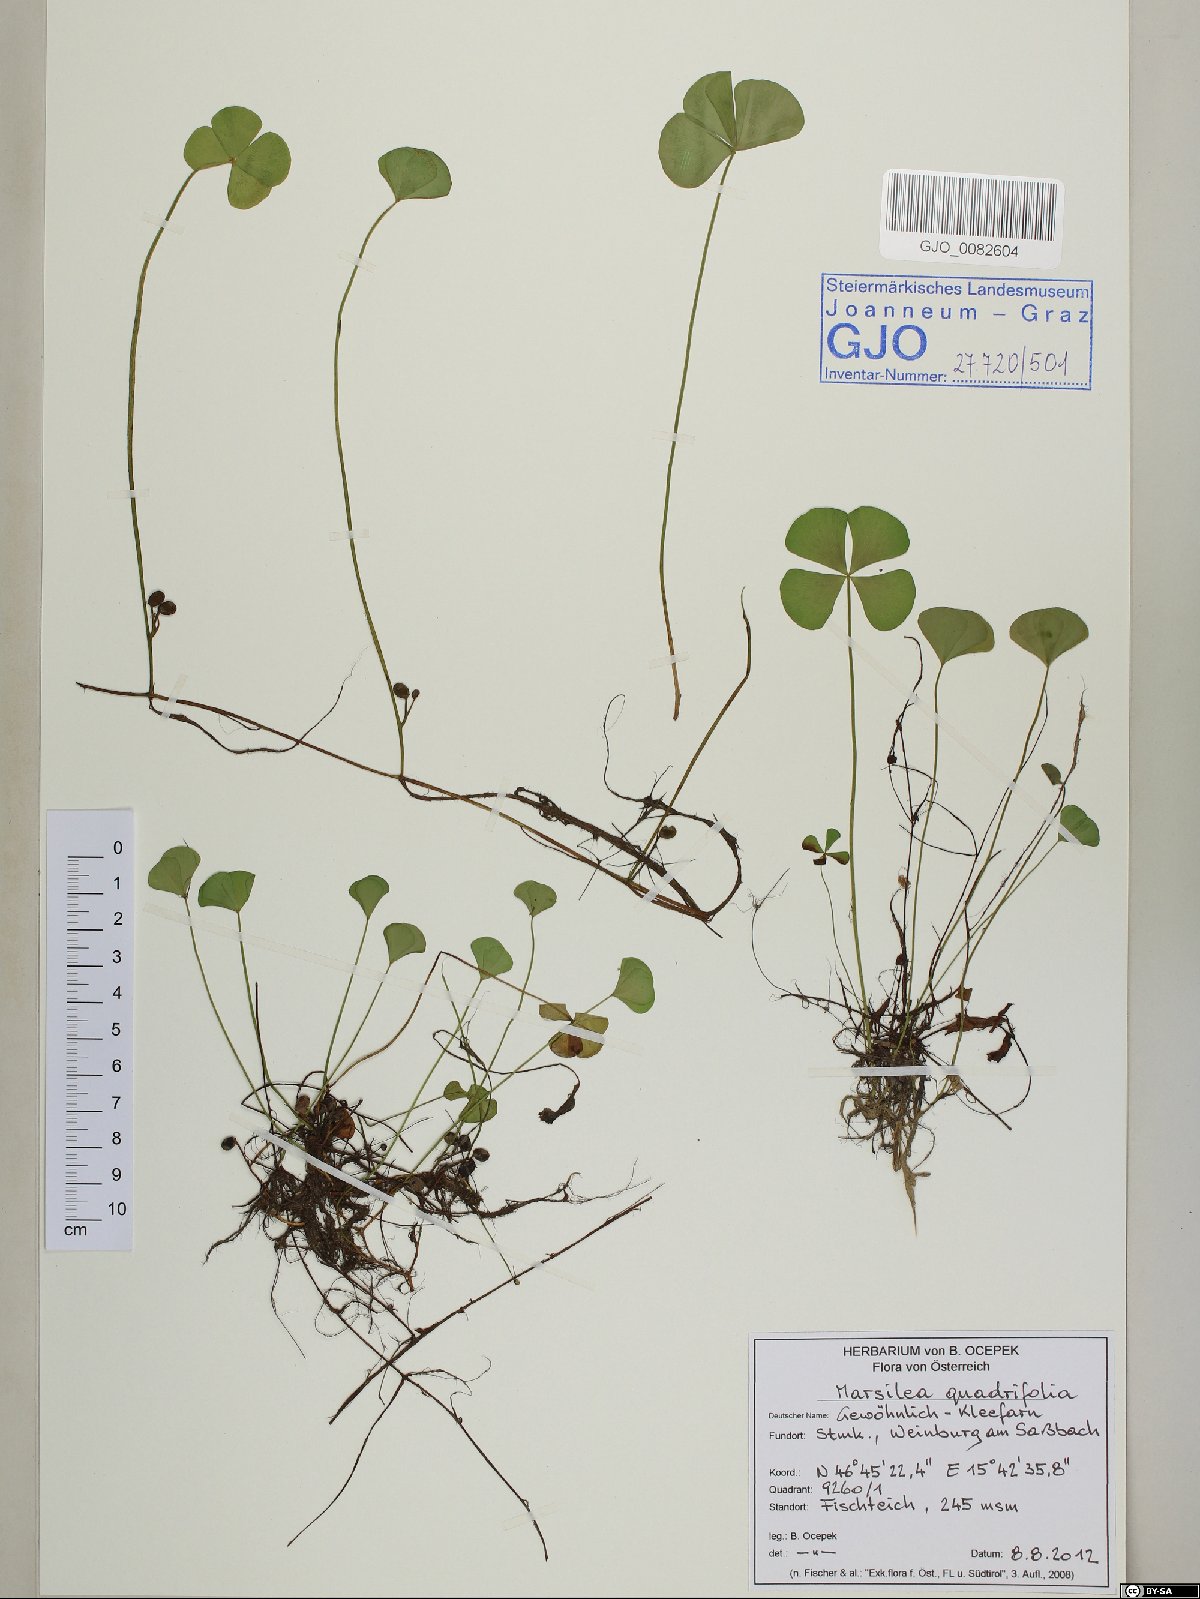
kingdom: Plantae
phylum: Tracheophyta
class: Polypodiopsida
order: Salviniales
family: Marsileaceae
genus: Marsilea
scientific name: Marsilea quadrifolia
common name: Water shamrock
